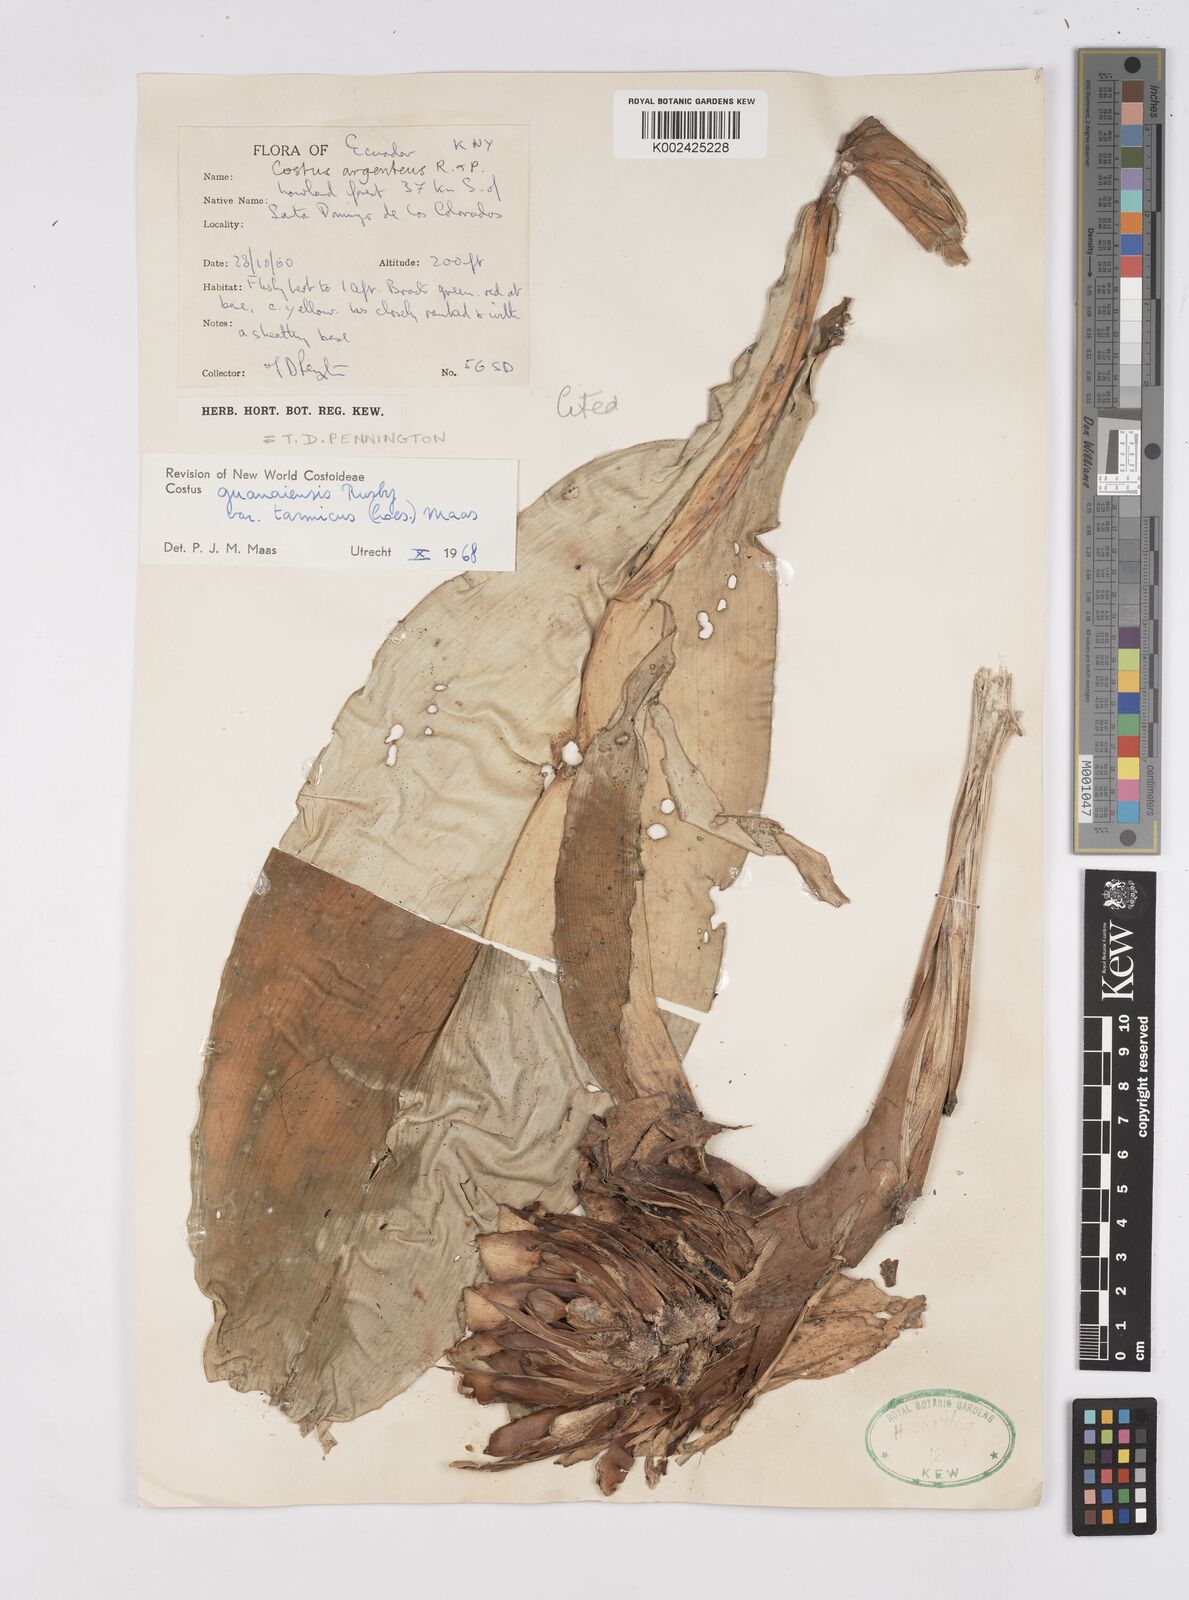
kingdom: Plantae
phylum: Tracheophyta
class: Liliopsida
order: Zingiberales
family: Costaceae
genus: Costus
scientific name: Costus guanaiensis
